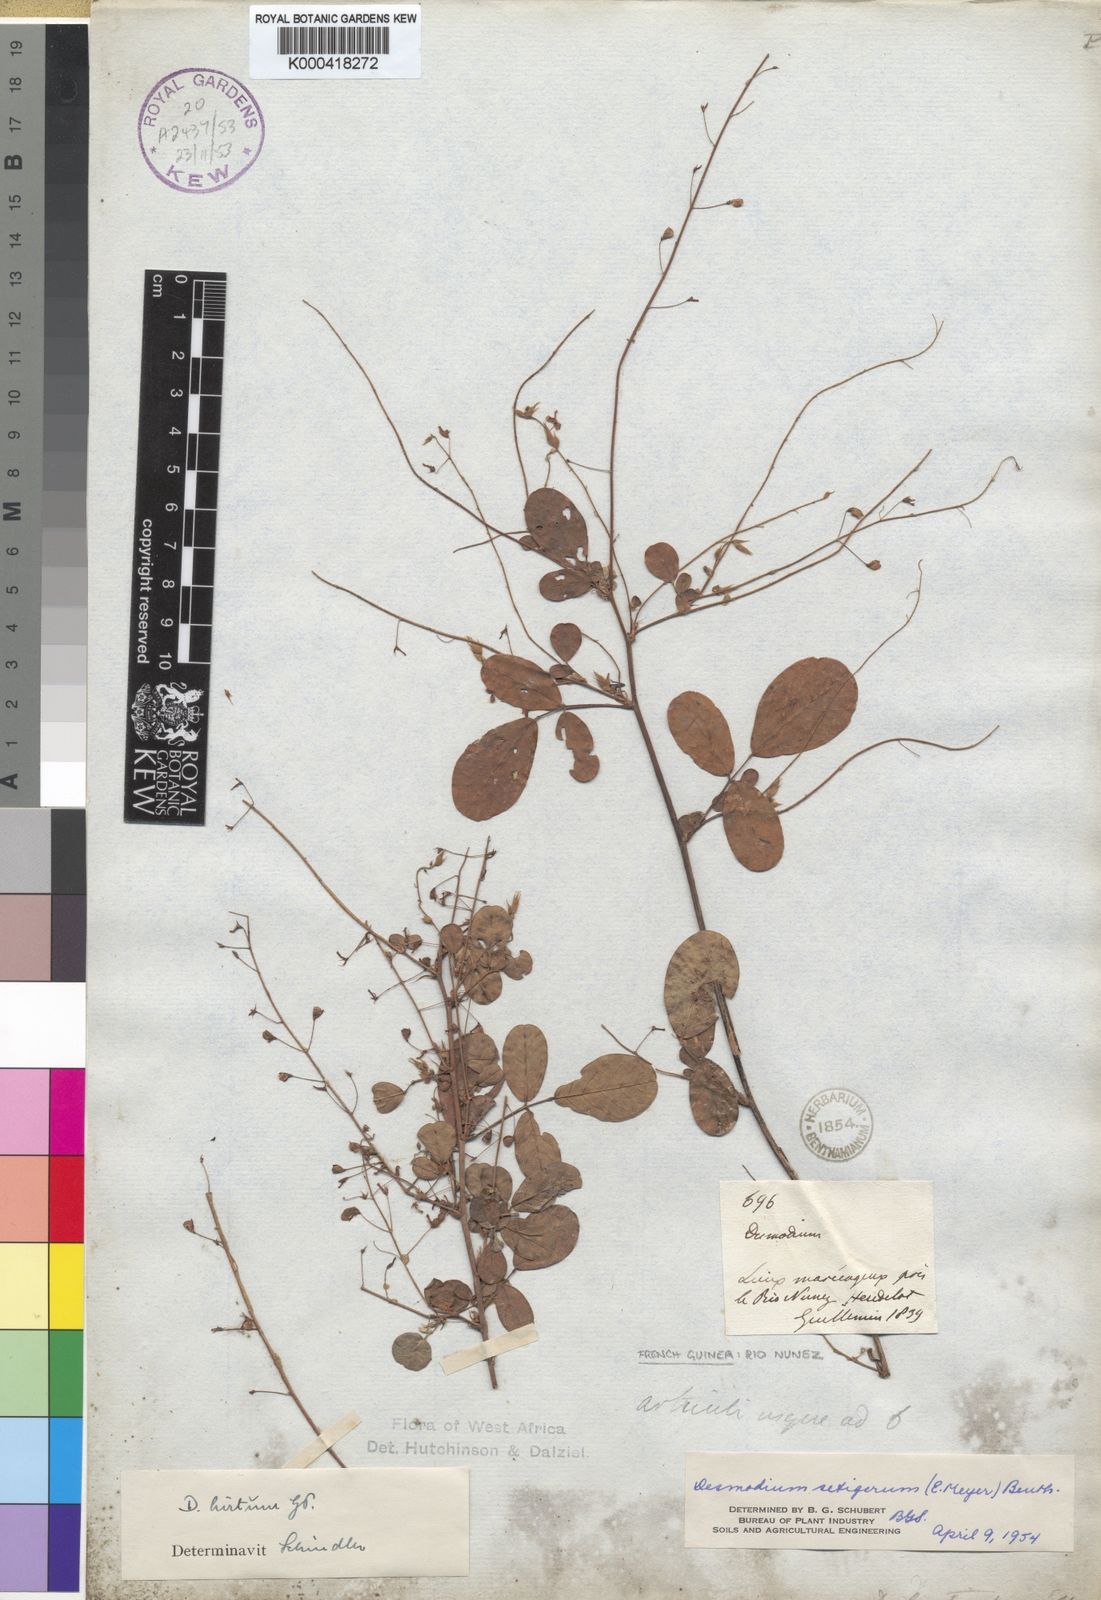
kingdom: Plantae
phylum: Tracheophyta
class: Magnoliopsida
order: Fabales
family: Fabaceae
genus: Grona
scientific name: Grona setigera
